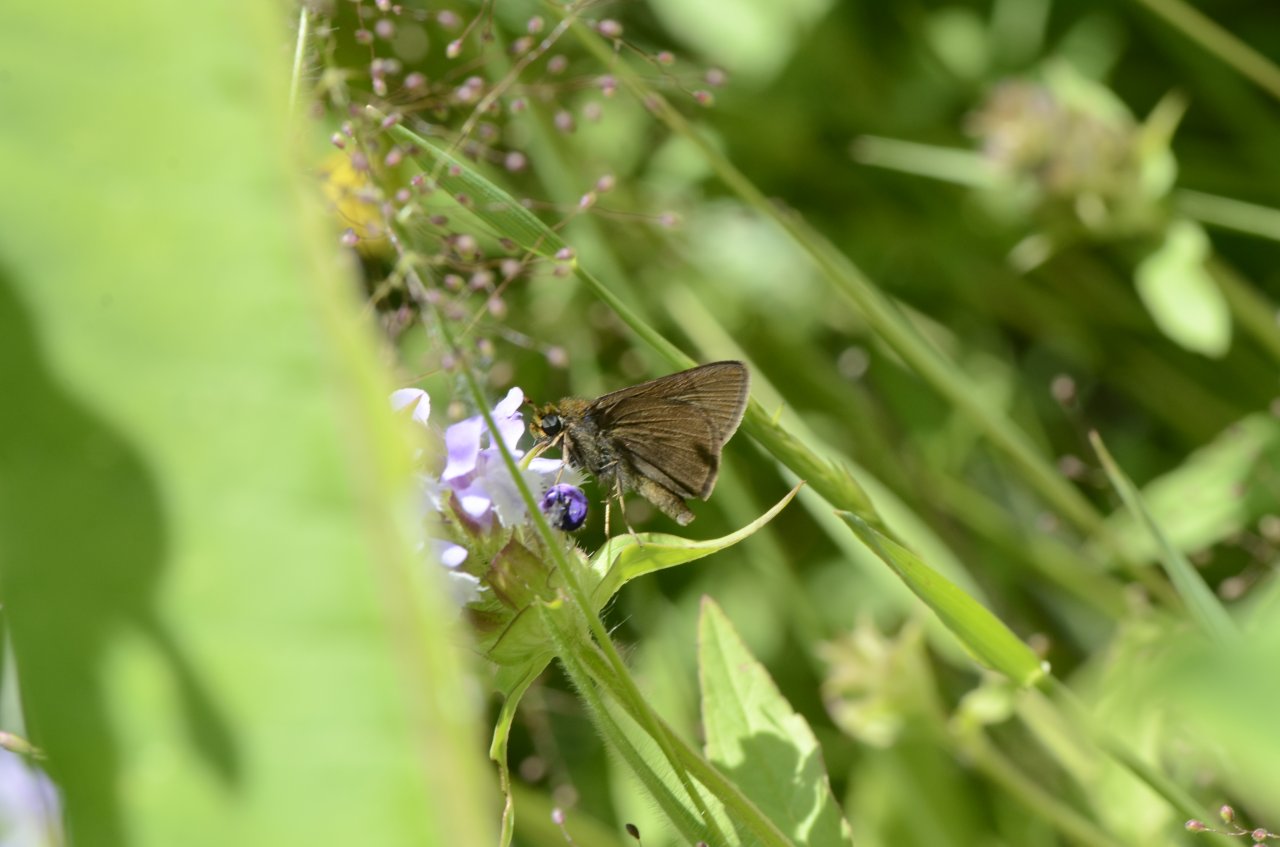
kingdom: Animalia
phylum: Arthropoda
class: Insecta
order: Lepidoptera
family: Hesperiidae
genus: Euphyes
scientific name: Euphyes vestris
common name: Dun Skipper
